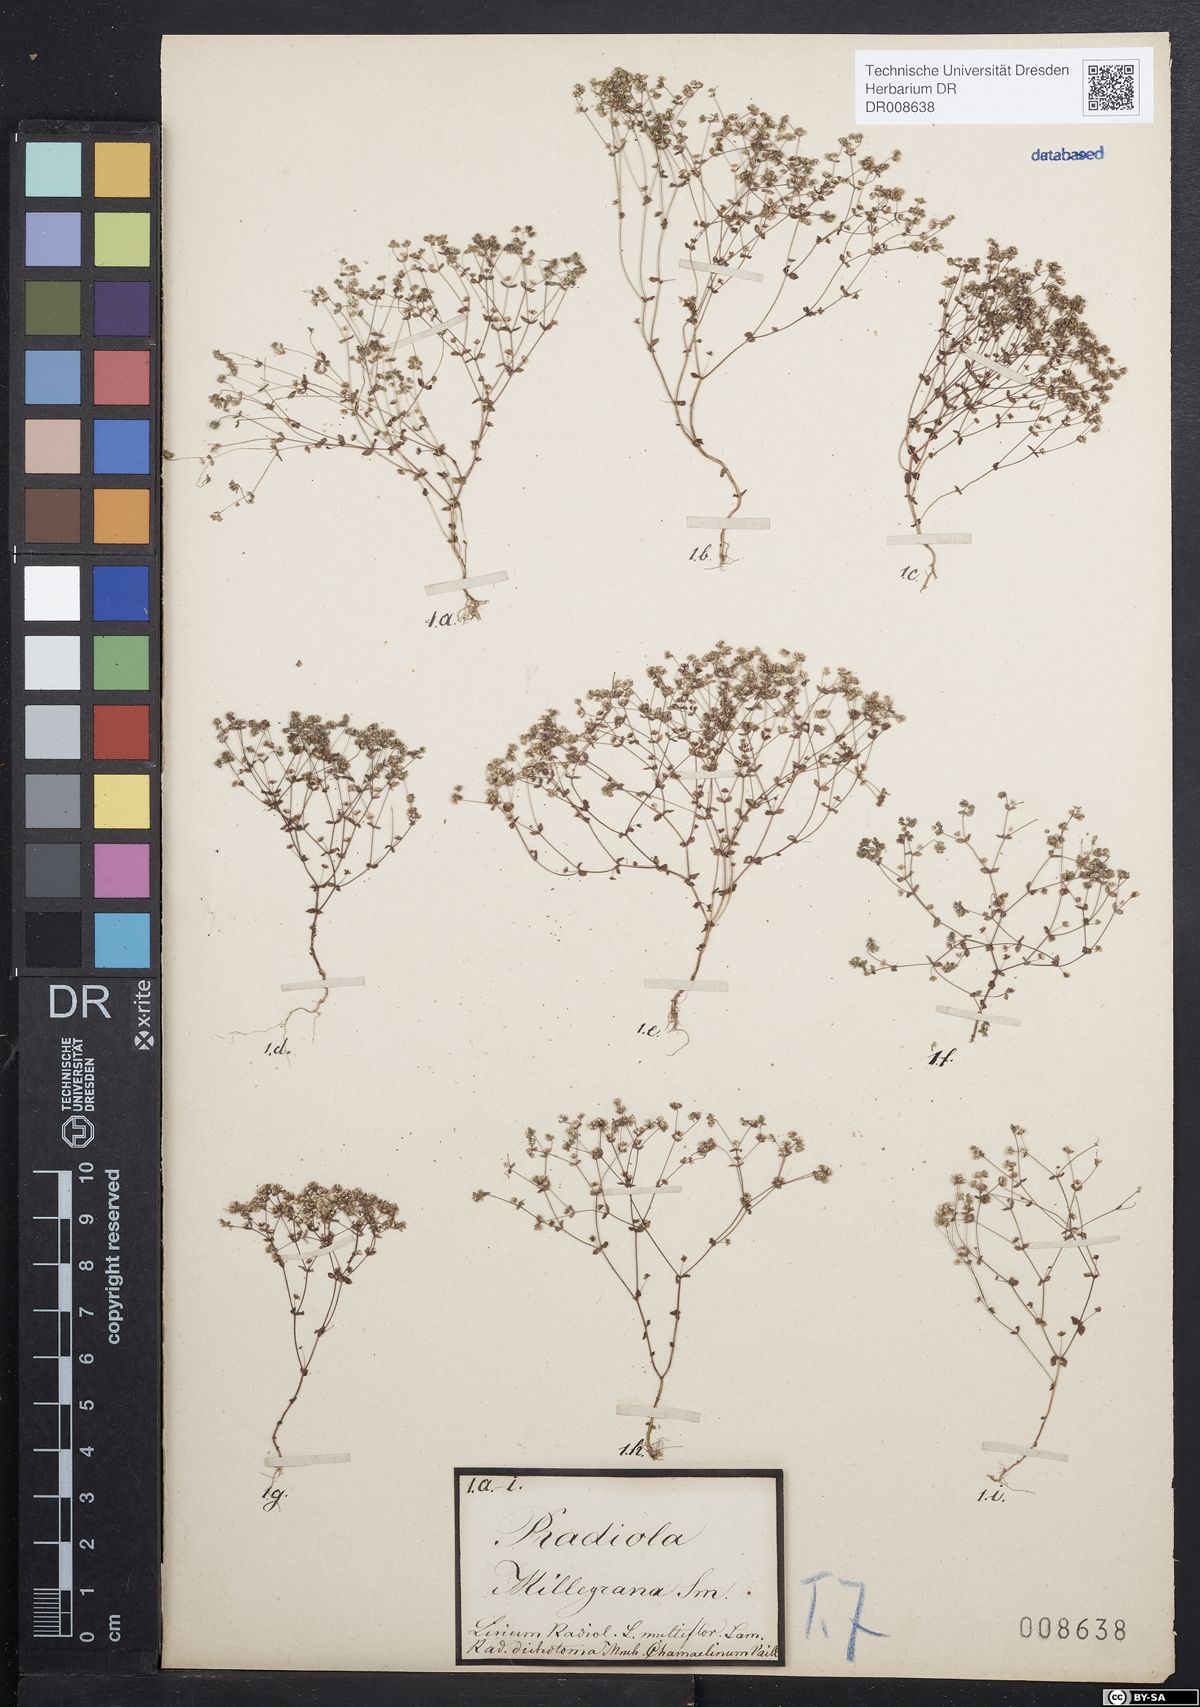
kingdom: Plantae
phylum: Tracheophyta
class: Magnoliopsida
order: Malpighiales
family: Linaceae
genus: Radiola
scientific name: Radiola linoides
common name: Allseed
